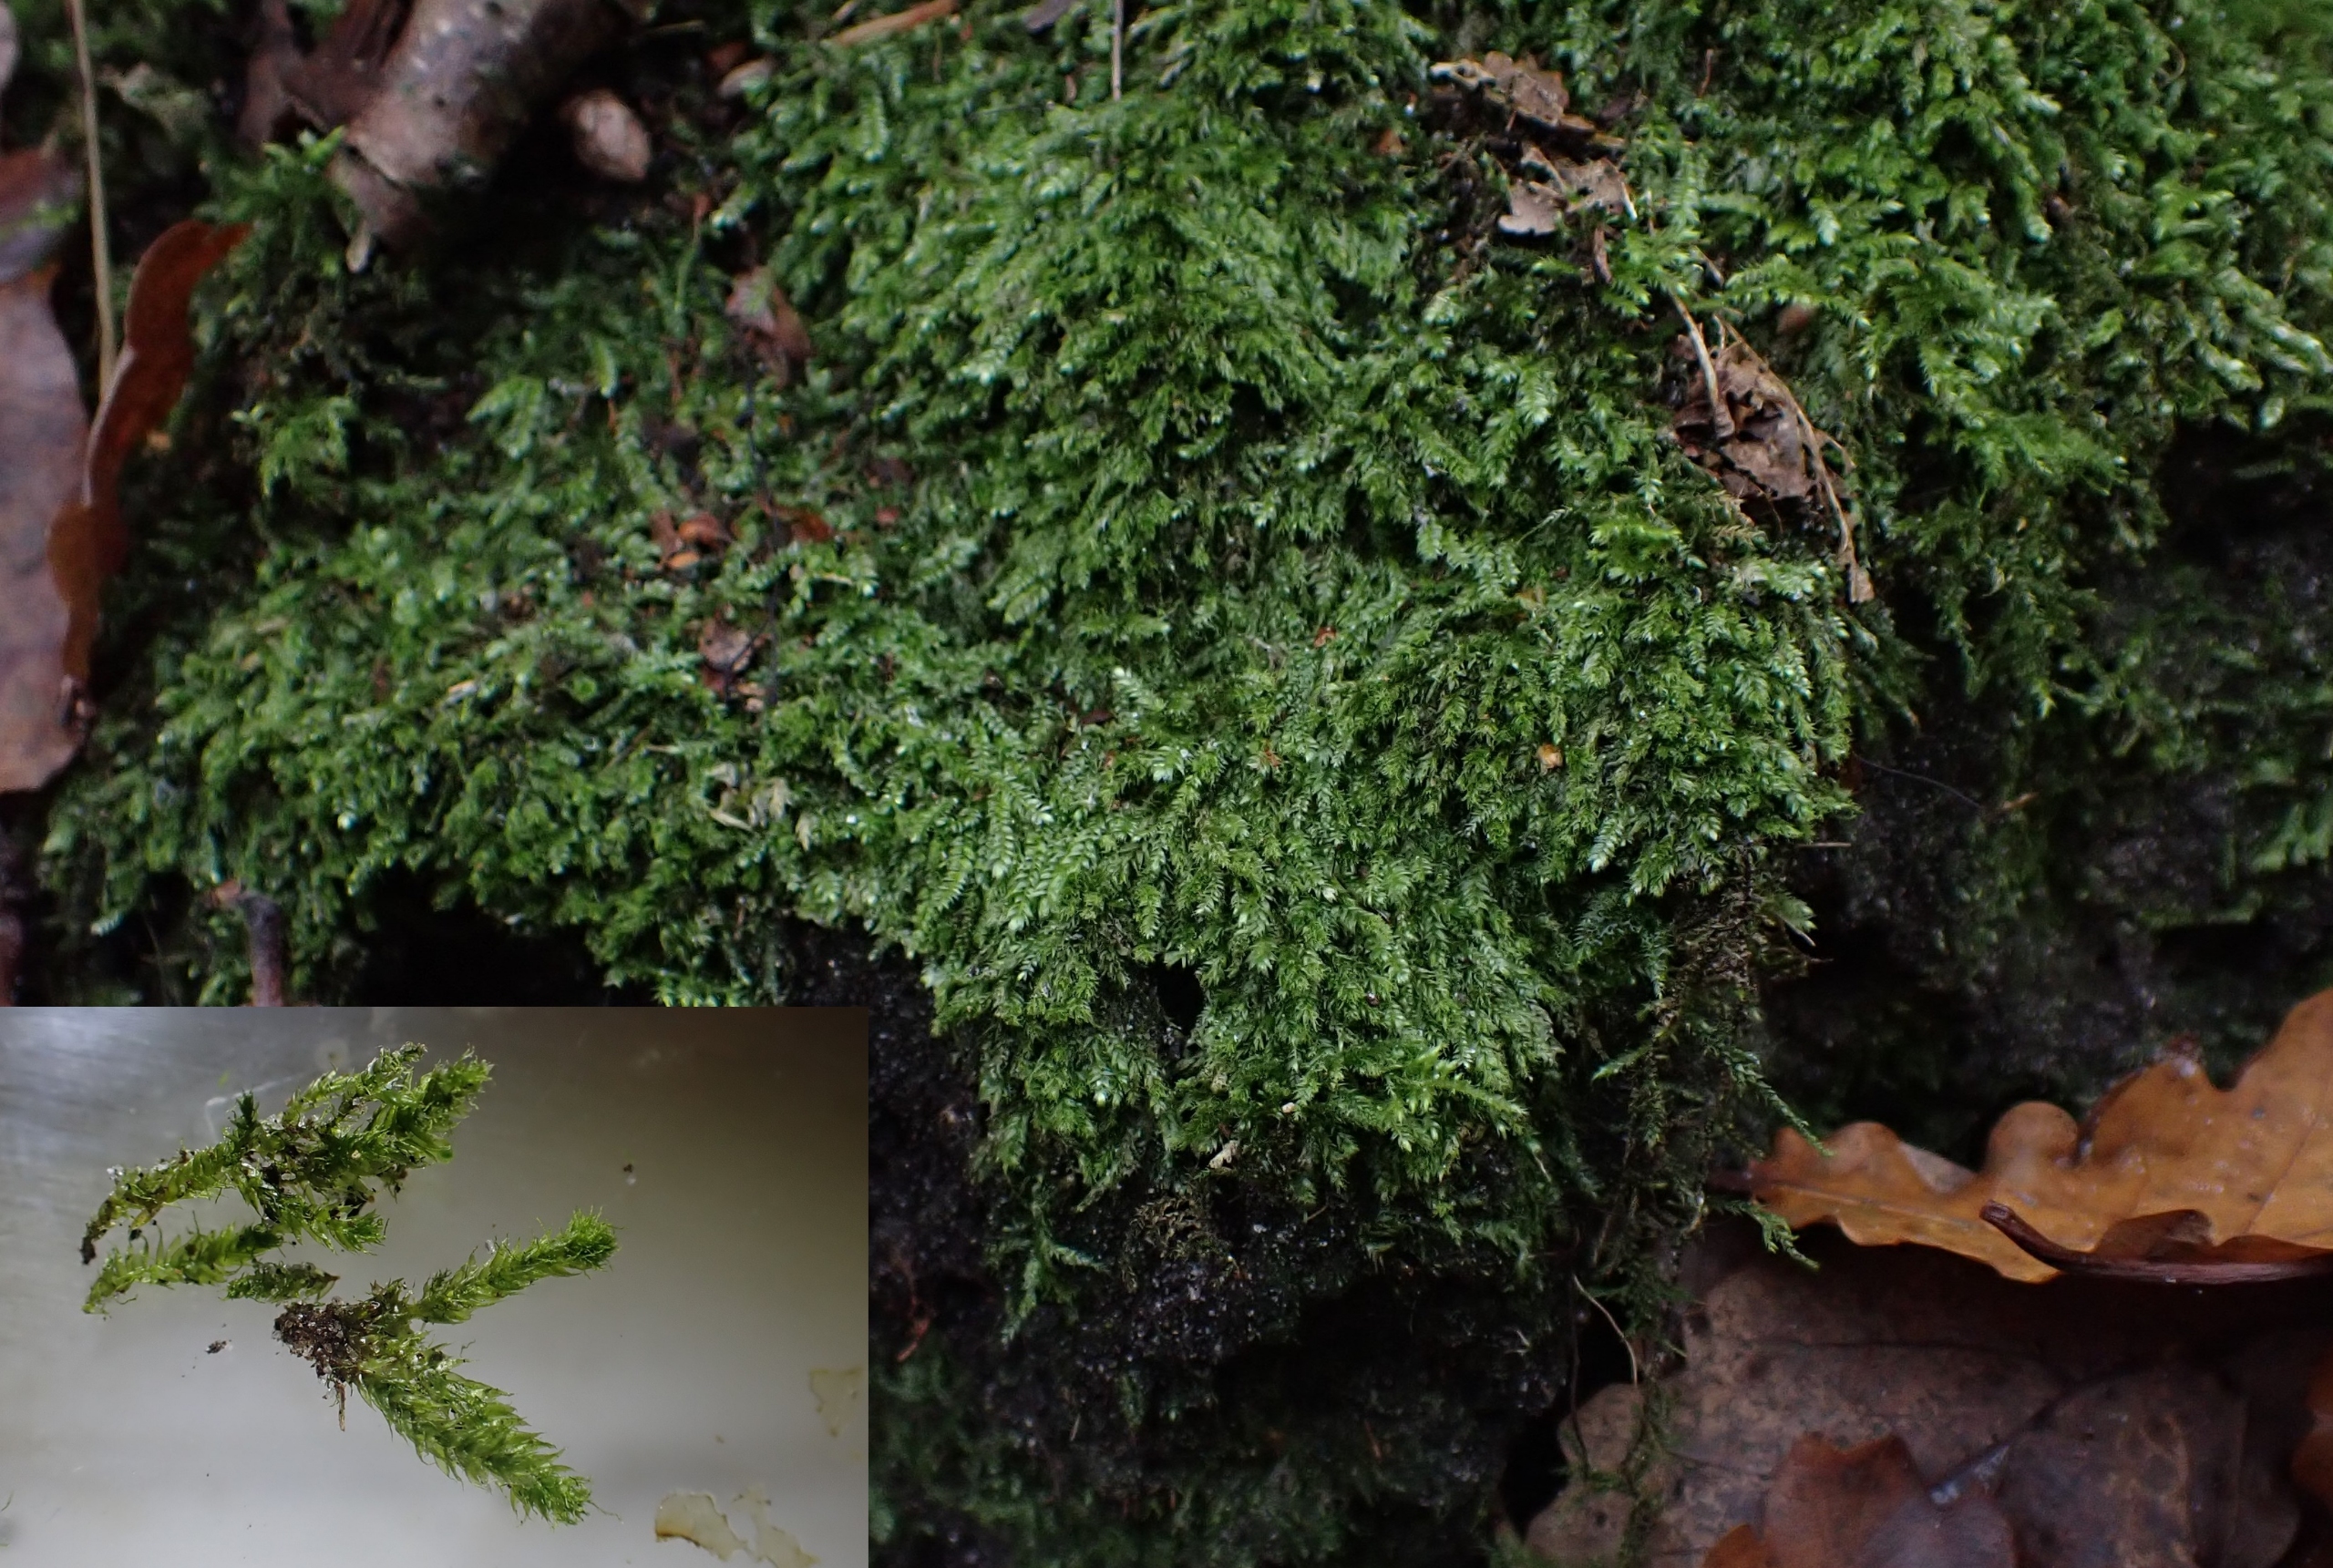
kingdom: Plantae
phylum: Bryophyta
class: Bryopsida
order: Hypnales
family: Plagiotheciaceae
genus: Pseudotaxiphyllum
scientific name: Pseudotaxiphyllum elegans
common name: Skinnende ynglegren
